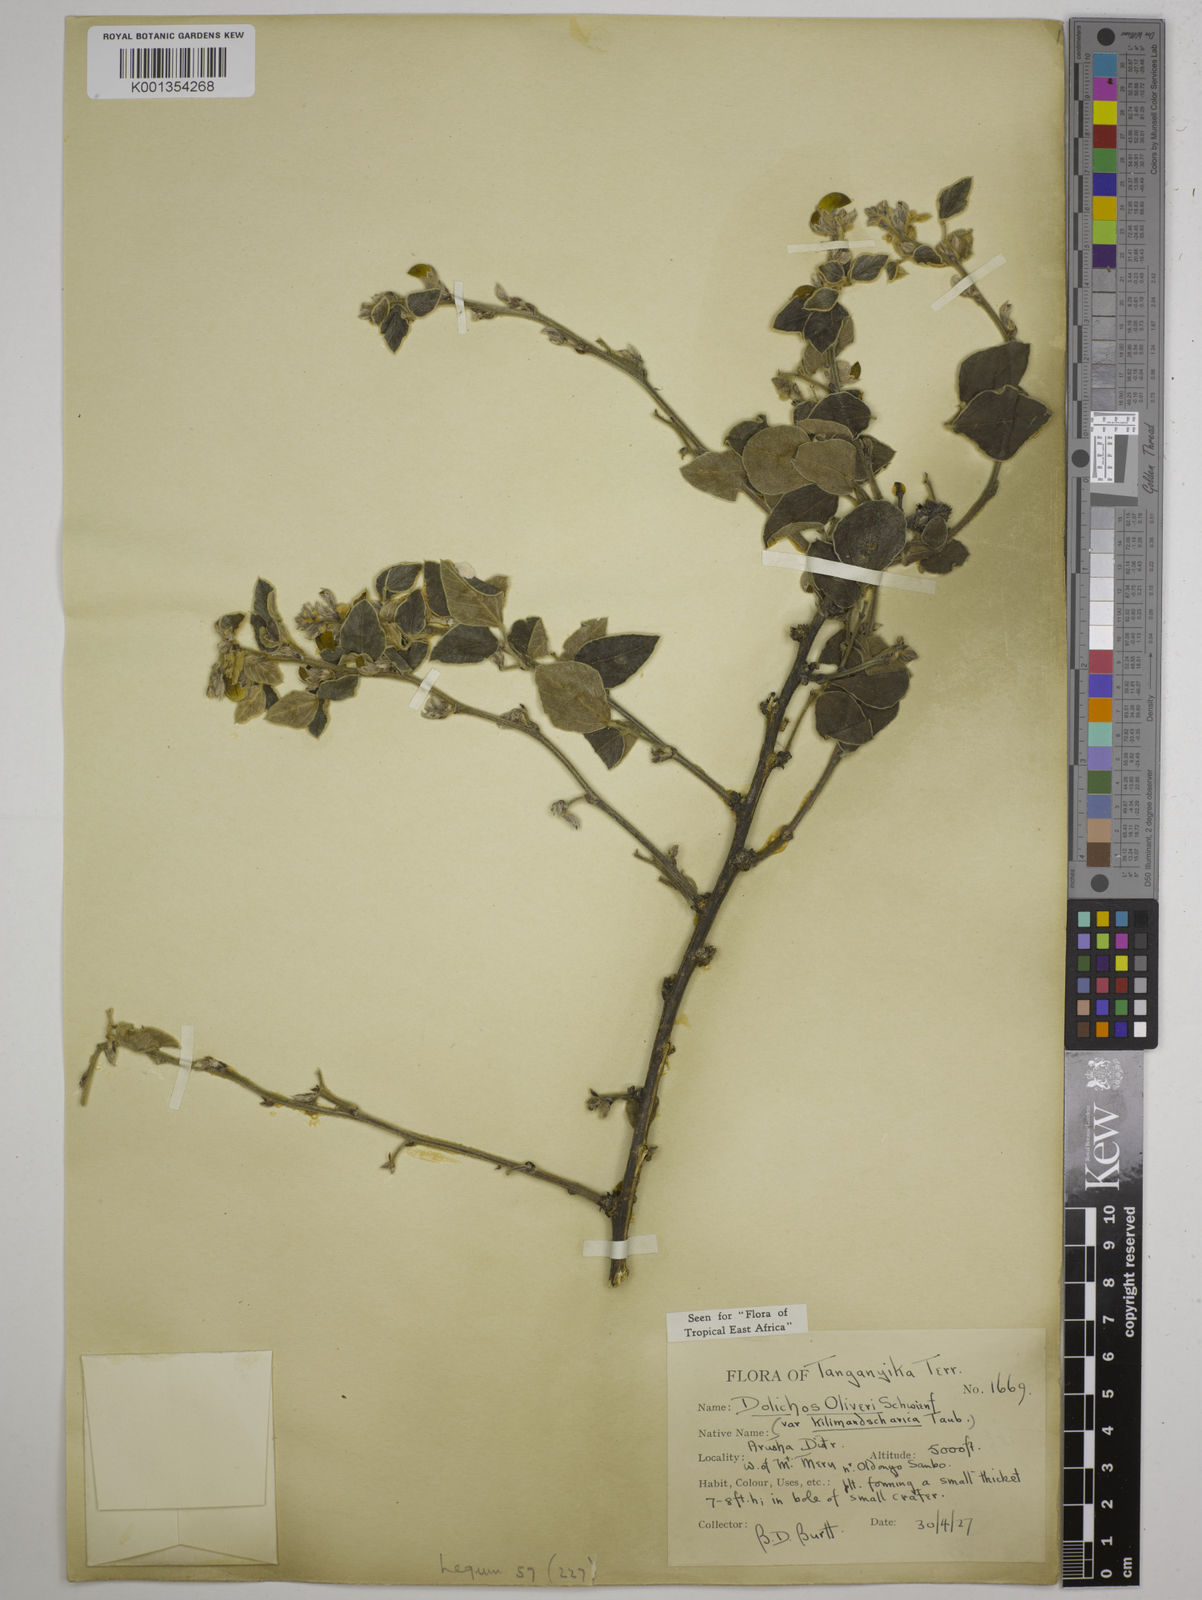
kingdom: Plantae
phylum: Tracheophyta
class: Magnoliopsida
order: Fabales
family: Fabaceae
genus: Dolichos
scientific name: Dolichos
